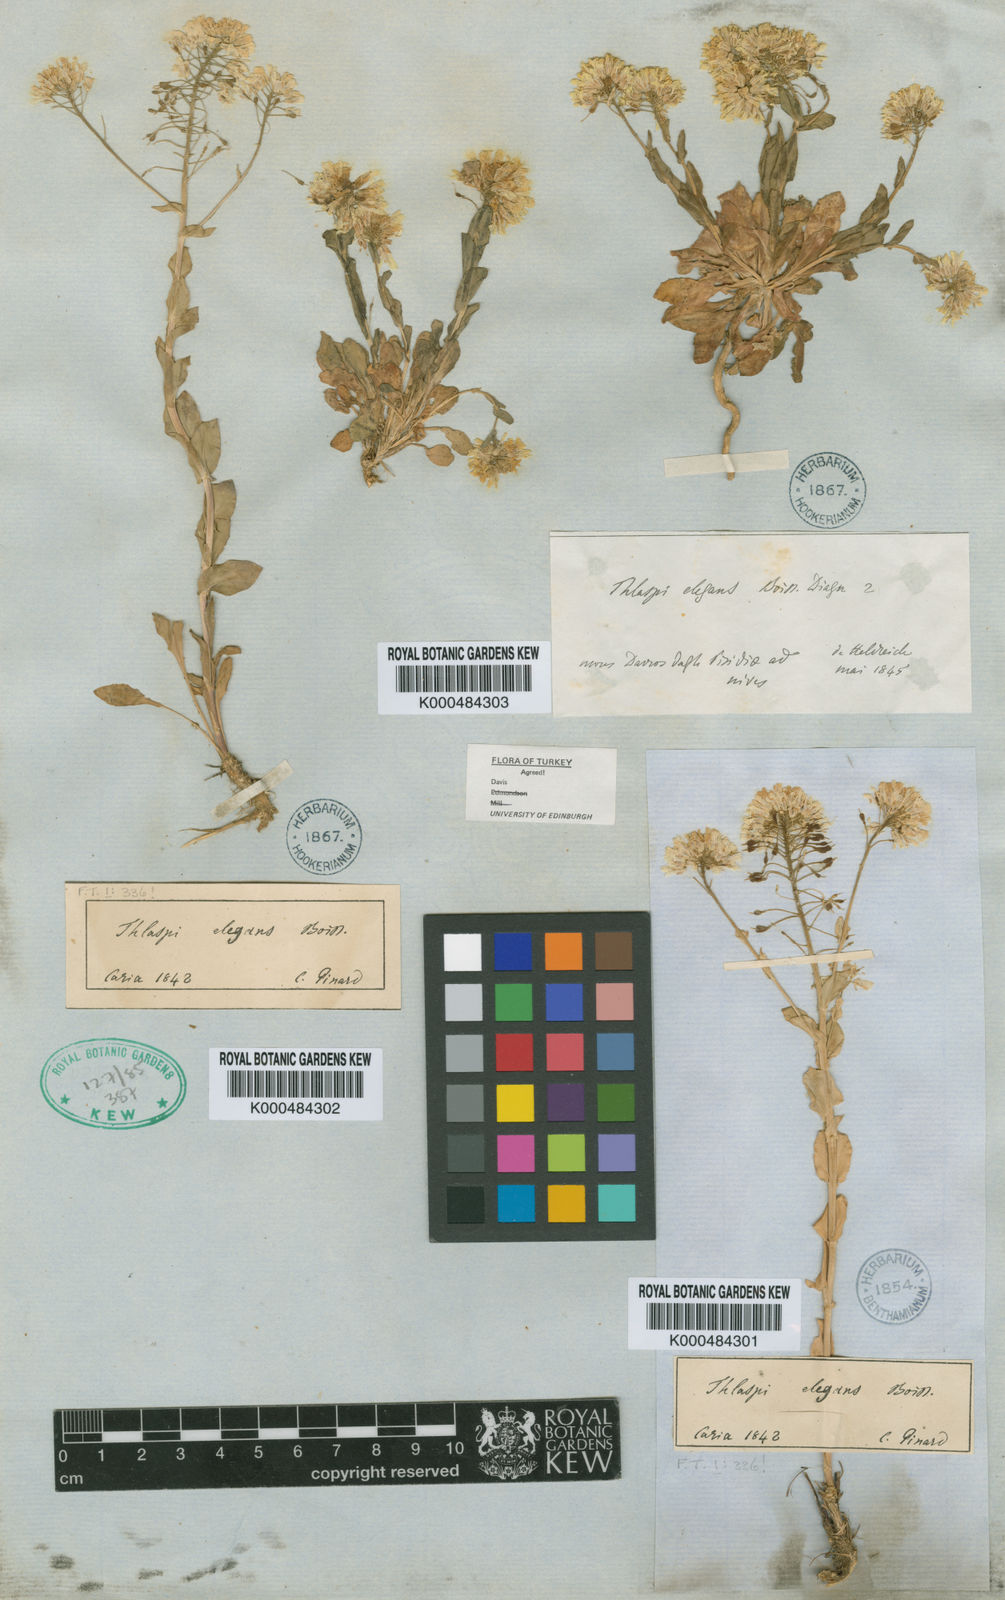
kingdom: Plantae
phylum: Tracheophyta
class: Magnoliopsida
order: Brassicales
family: Brassicaceae
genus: Noccaea
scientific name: Noccaea elegans
